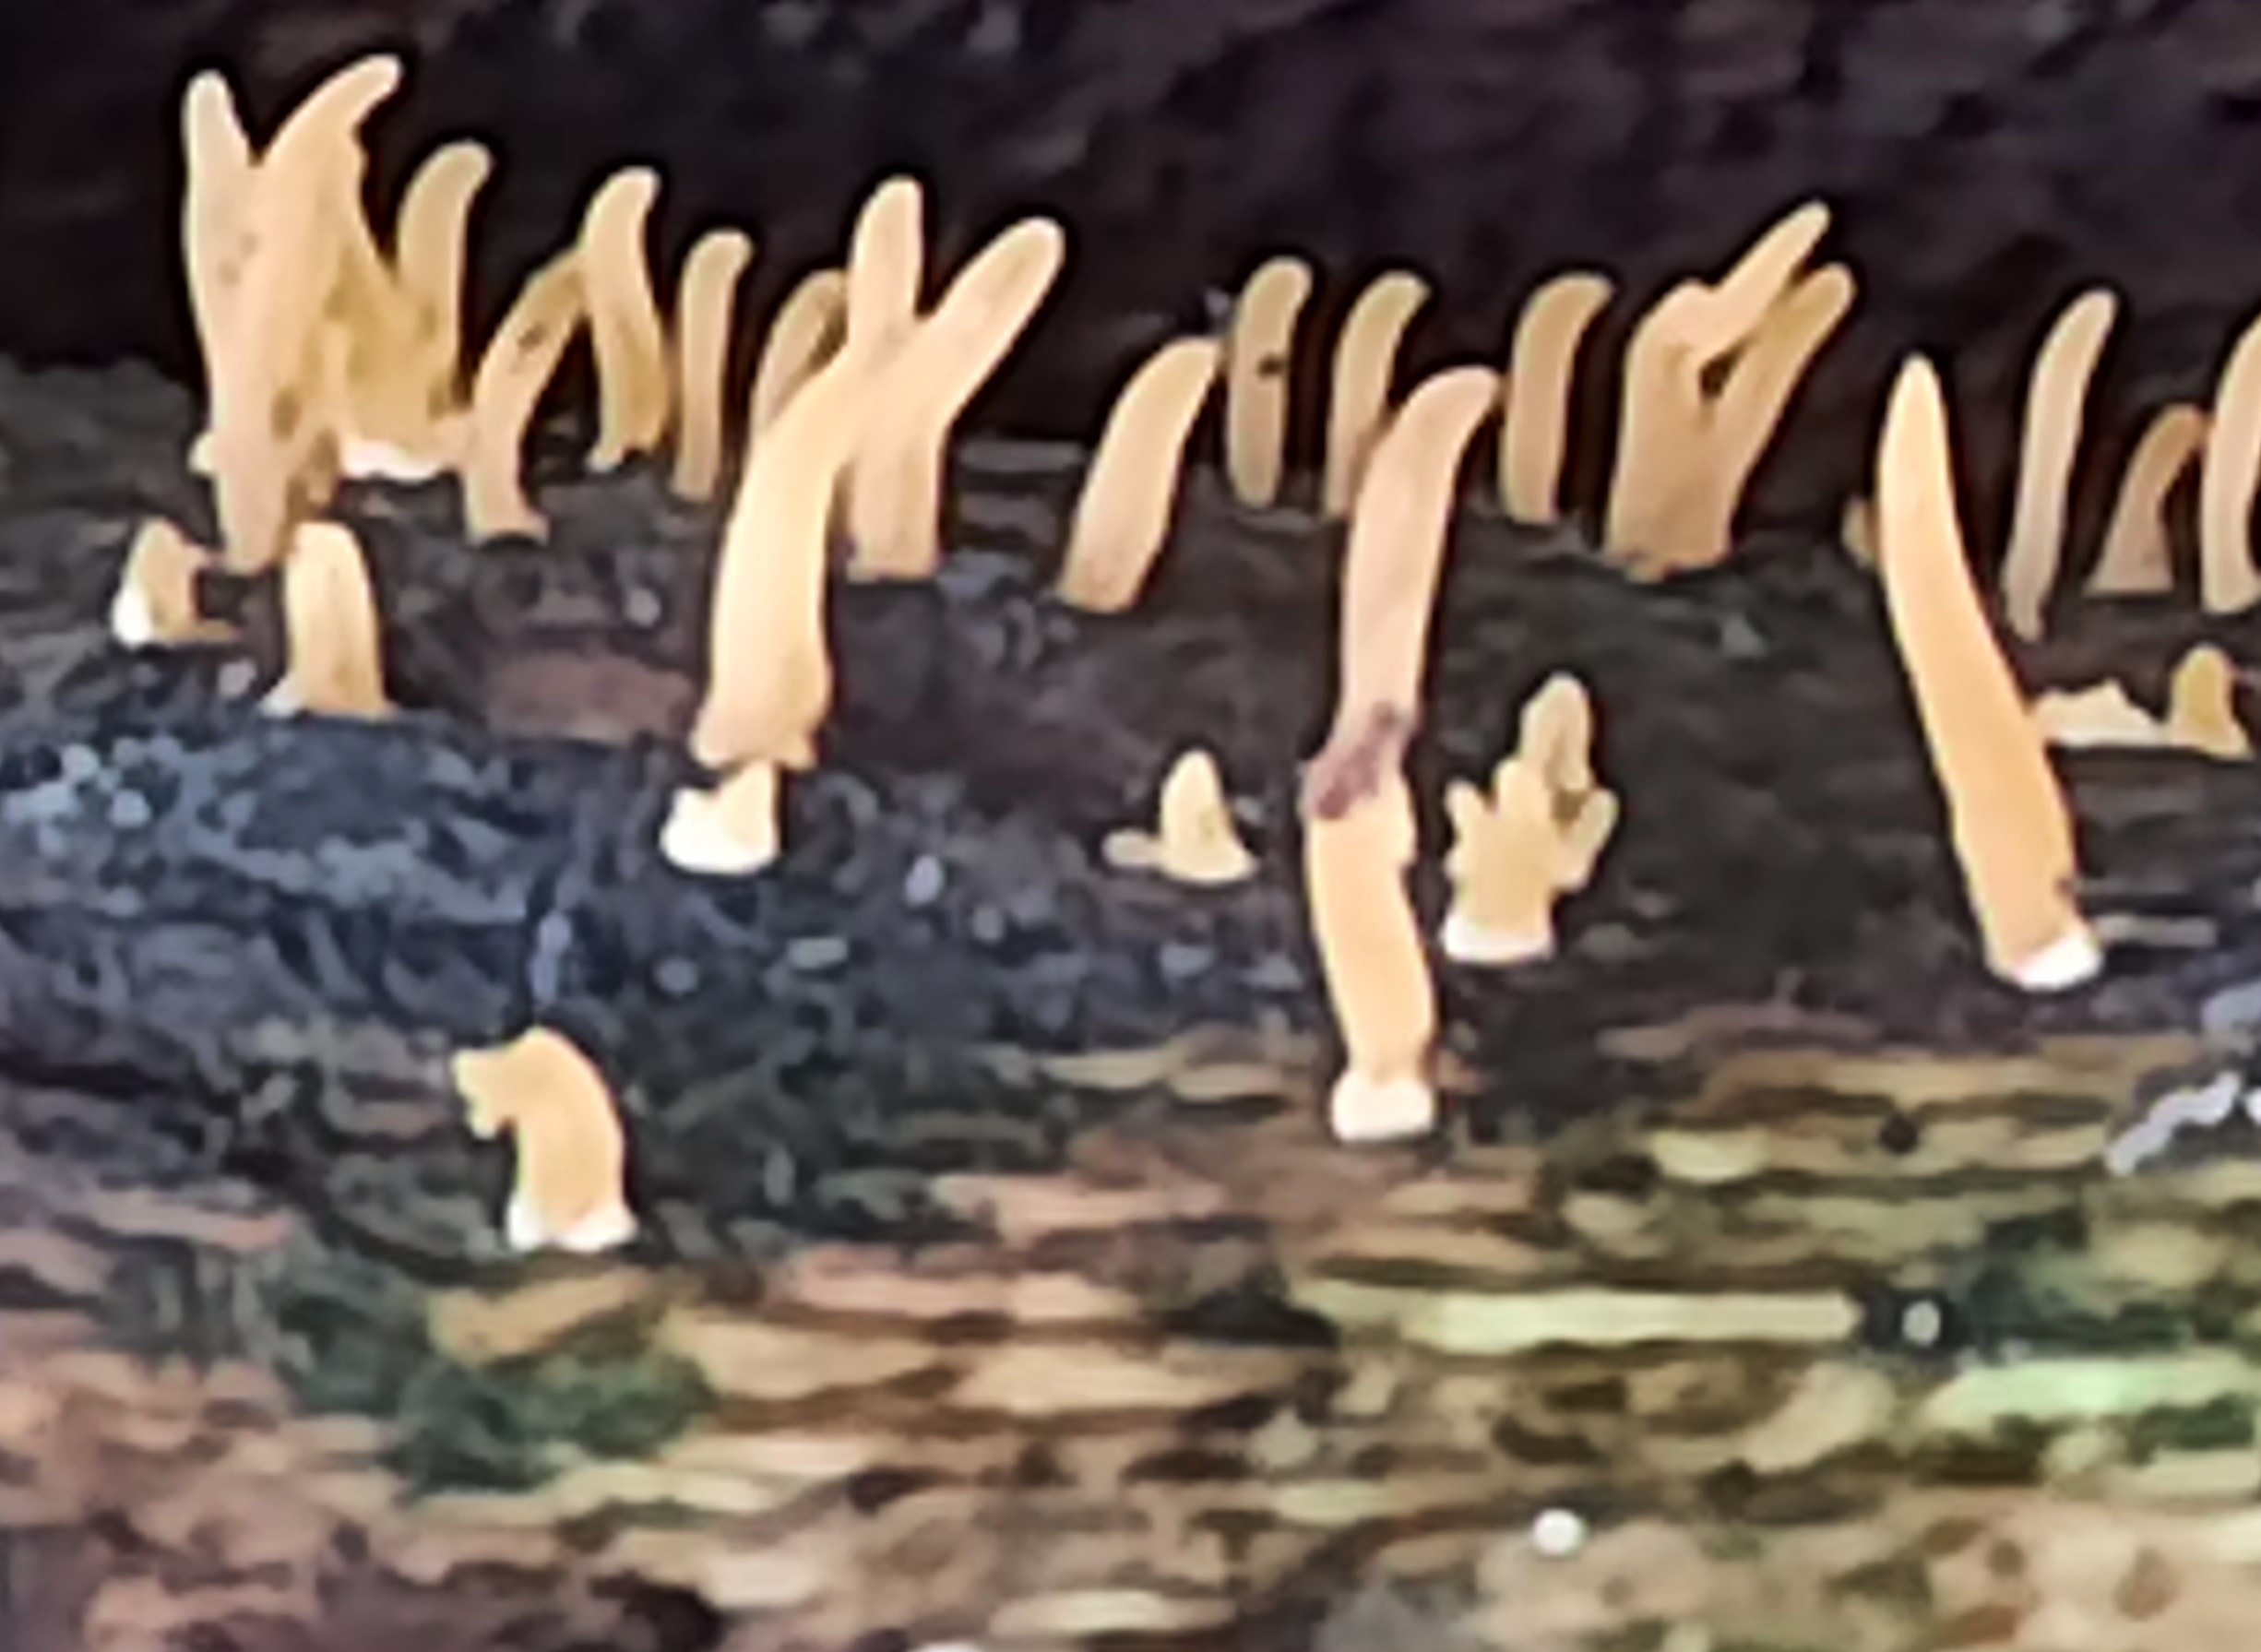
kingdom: Fungi
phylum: Basidiomycota
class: Dacrymycetes
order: Dacrymycetales
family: Dacrymycetaceae
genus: Calocera
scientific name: Calocera cornea
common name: liden guldgaffel
